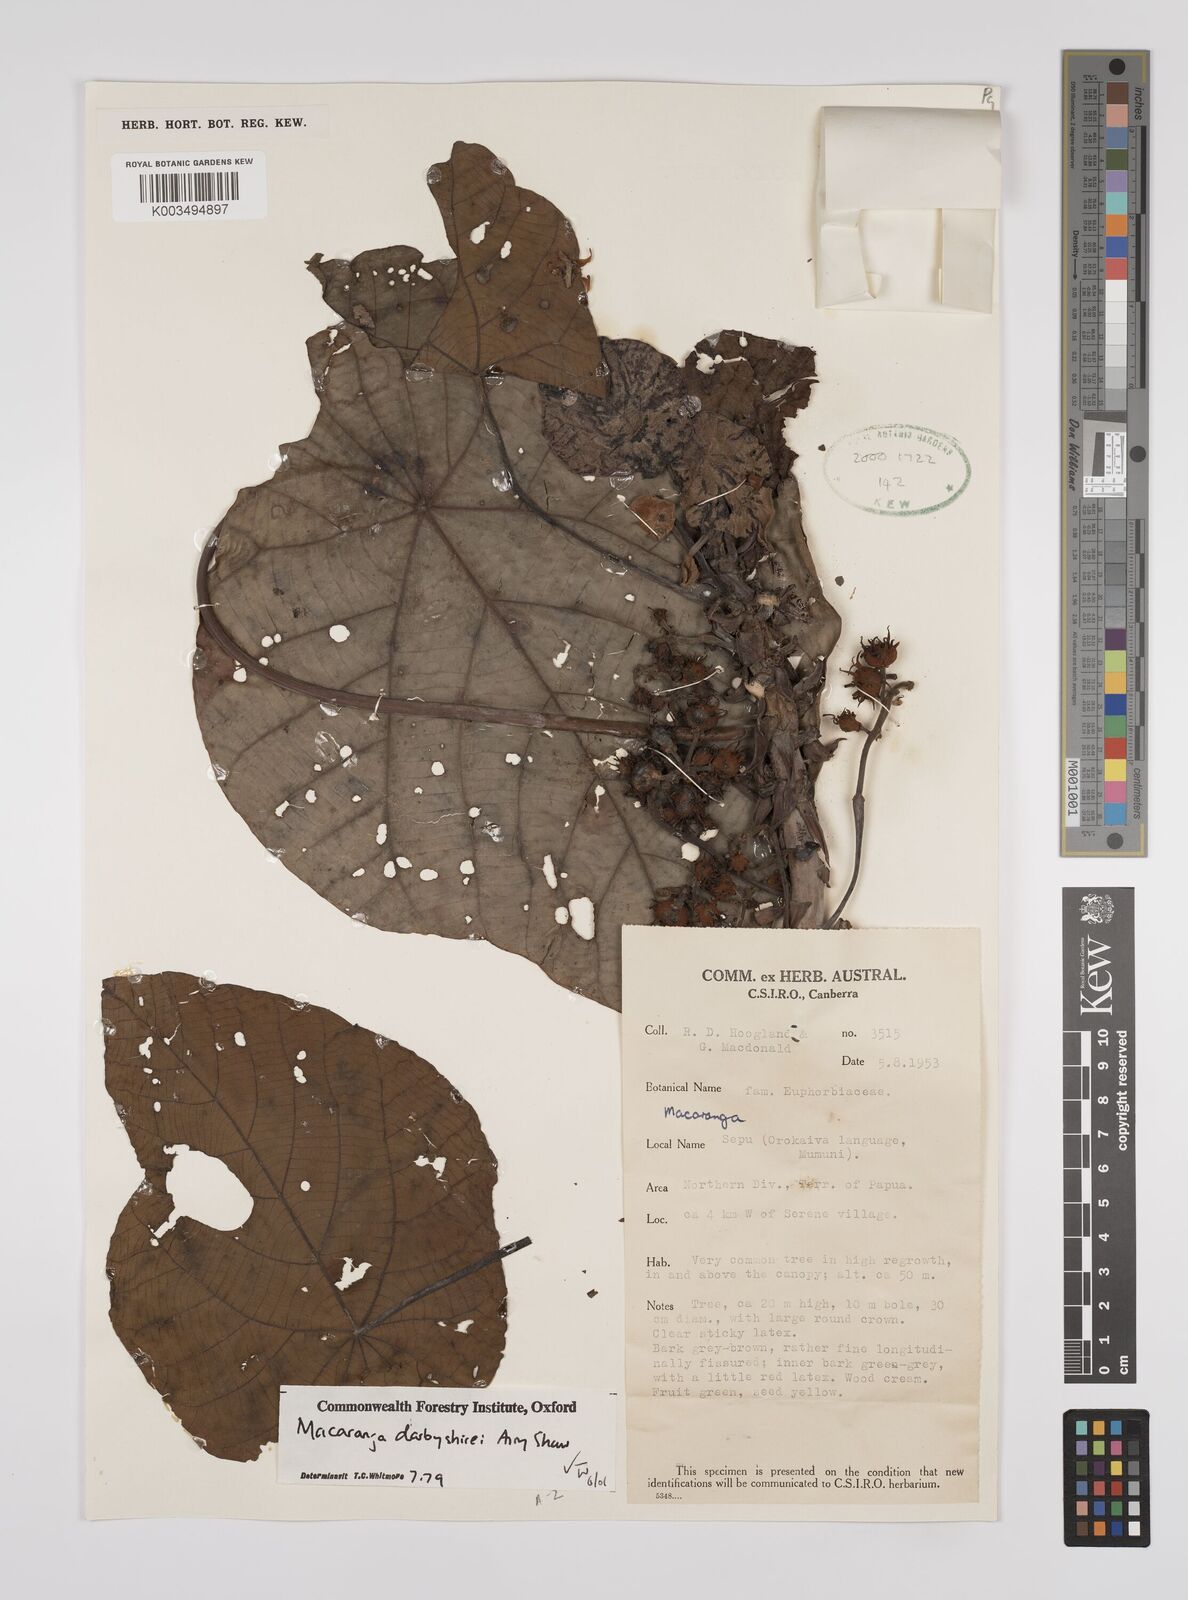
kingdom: Plantae
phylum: Tracheophyta
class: Magnoliopsida
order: Malpighiales
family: Euphorbiaceae
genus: Macaranga
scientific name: Macaranga darbyshirei
